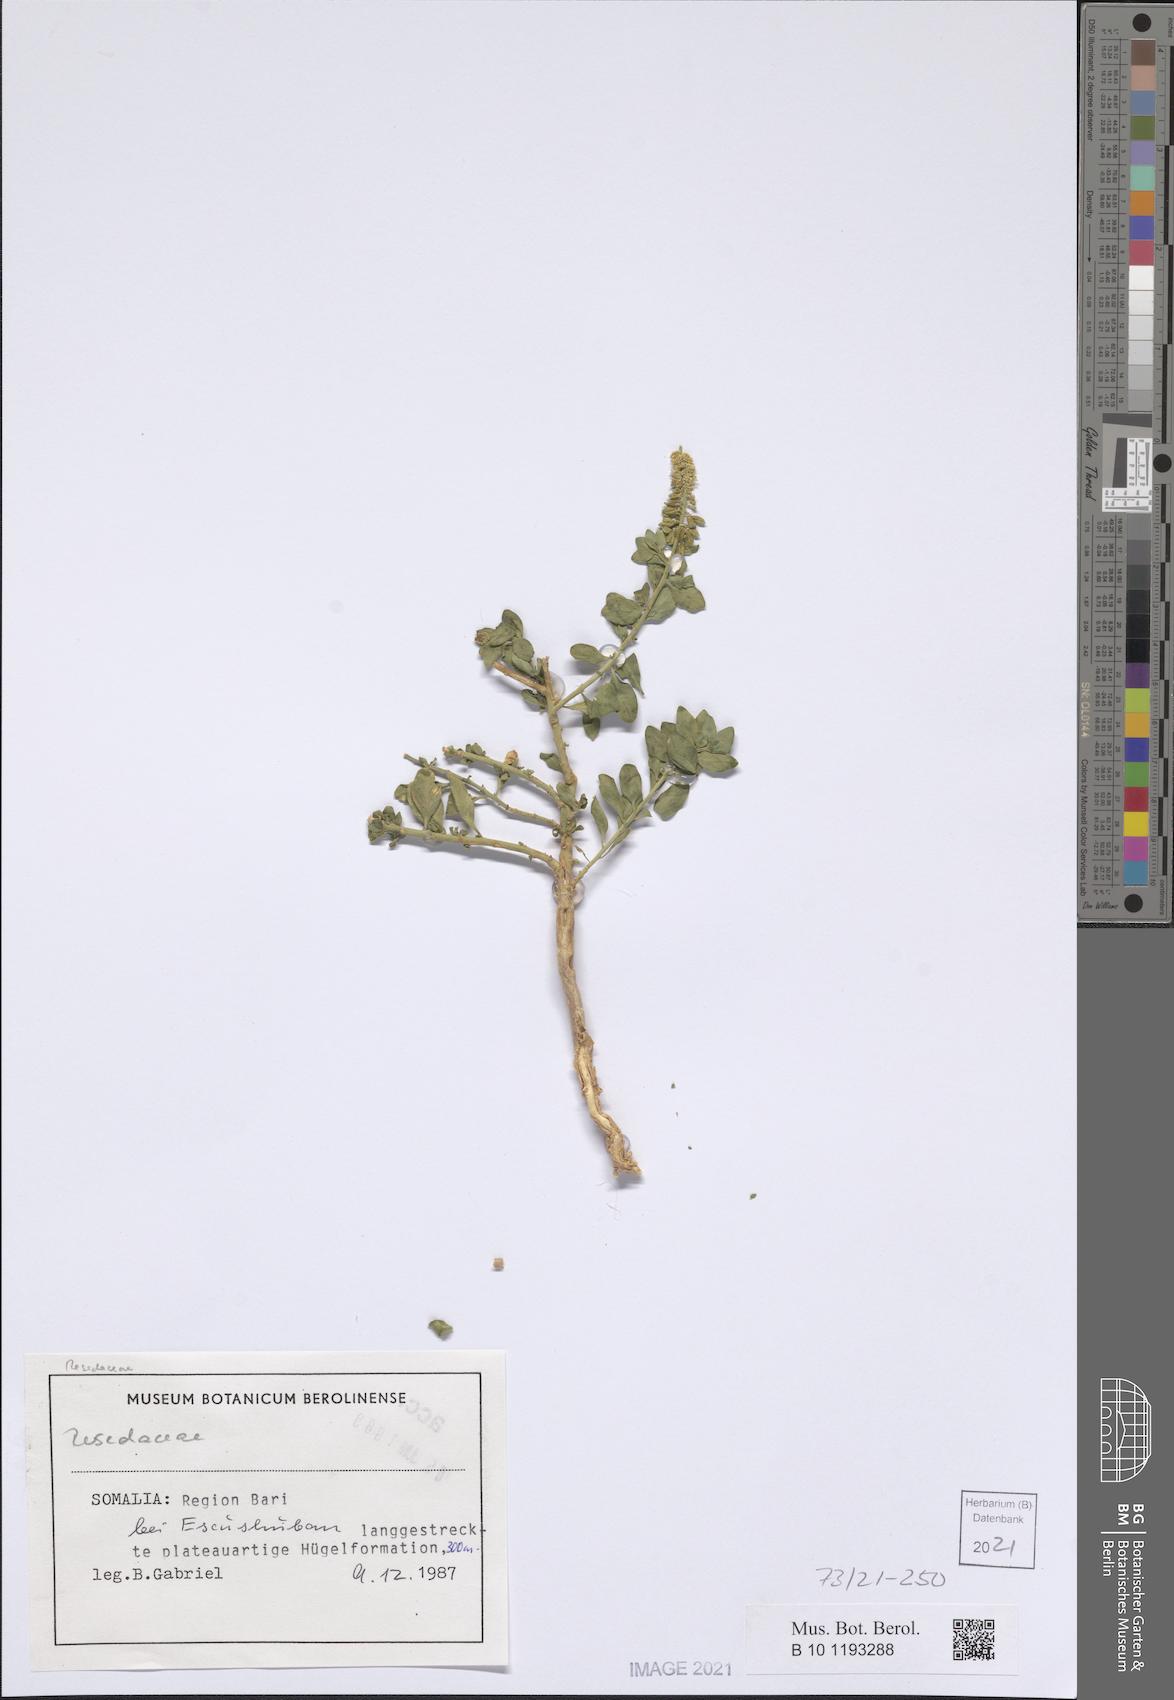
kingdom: Plantae
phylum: Tracheophyta
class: Magnoliopsida
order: Brassicales
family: Resedaceae
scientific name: Resedaceae
